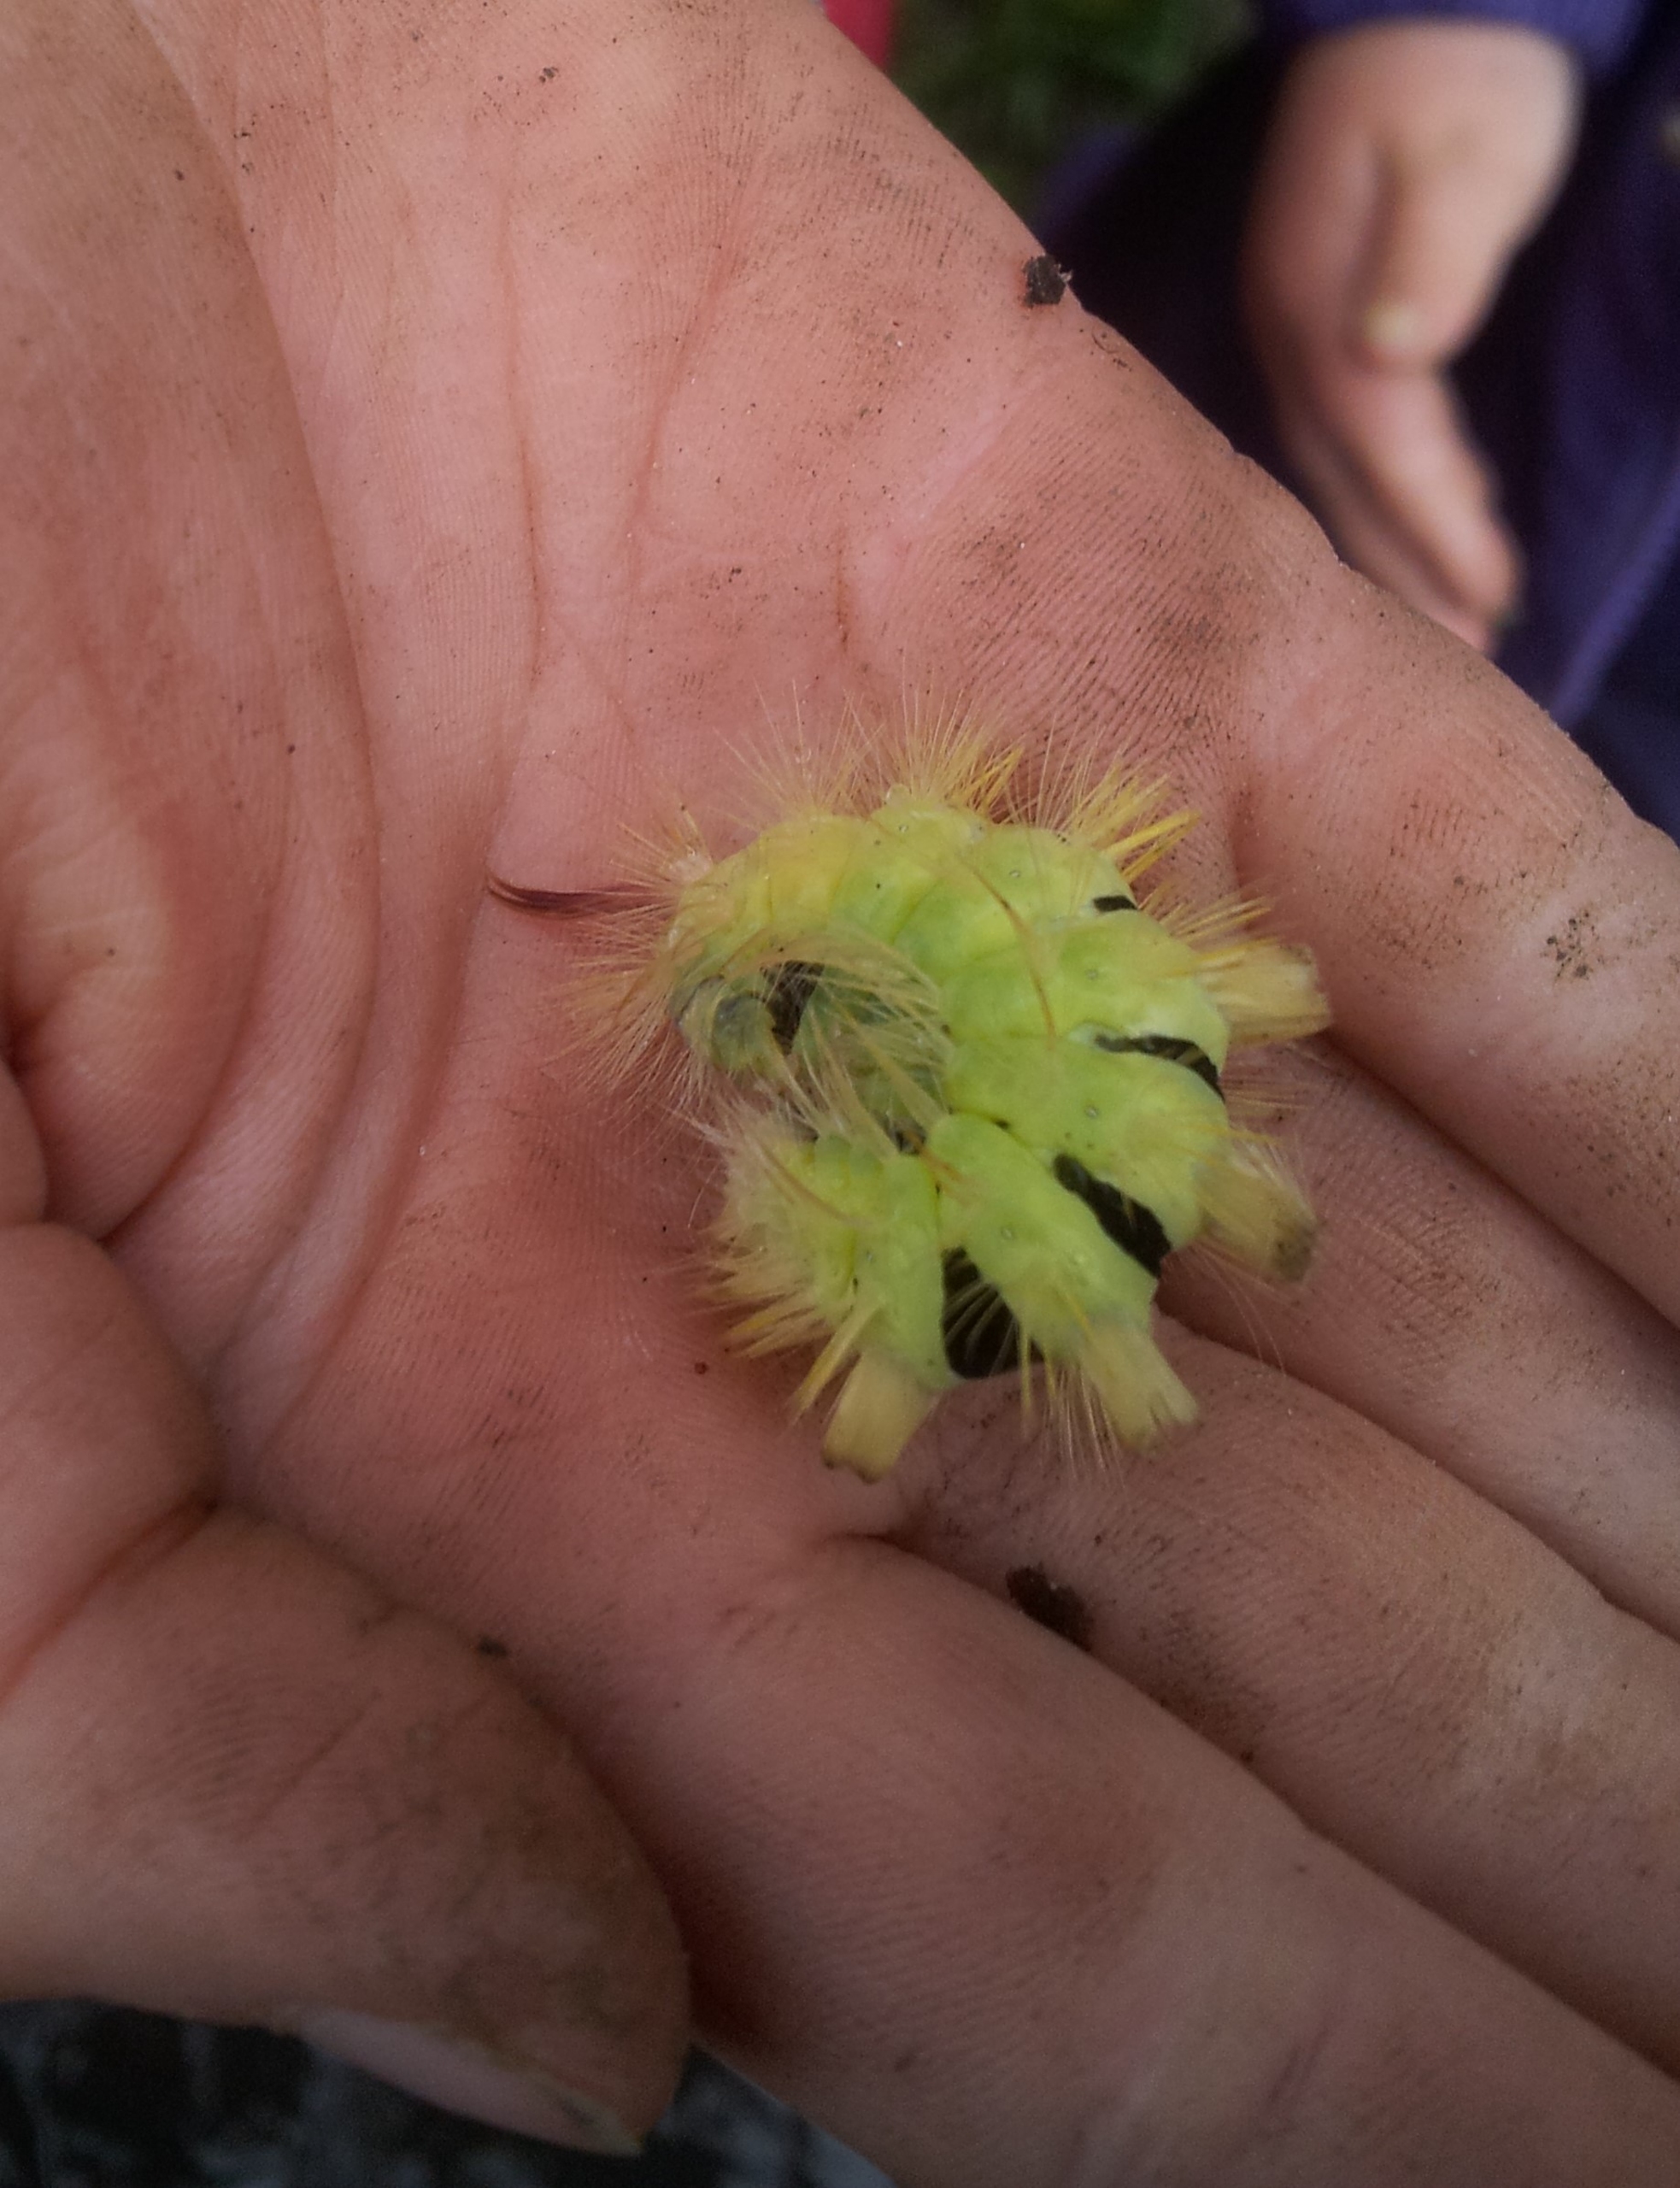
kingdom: Animalia
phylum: Arthropoda
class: Insecta
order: Lepidoptera
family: Erebidae
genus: Calliteara
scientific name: Calliteara pudibunda
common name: Bøgenonne
